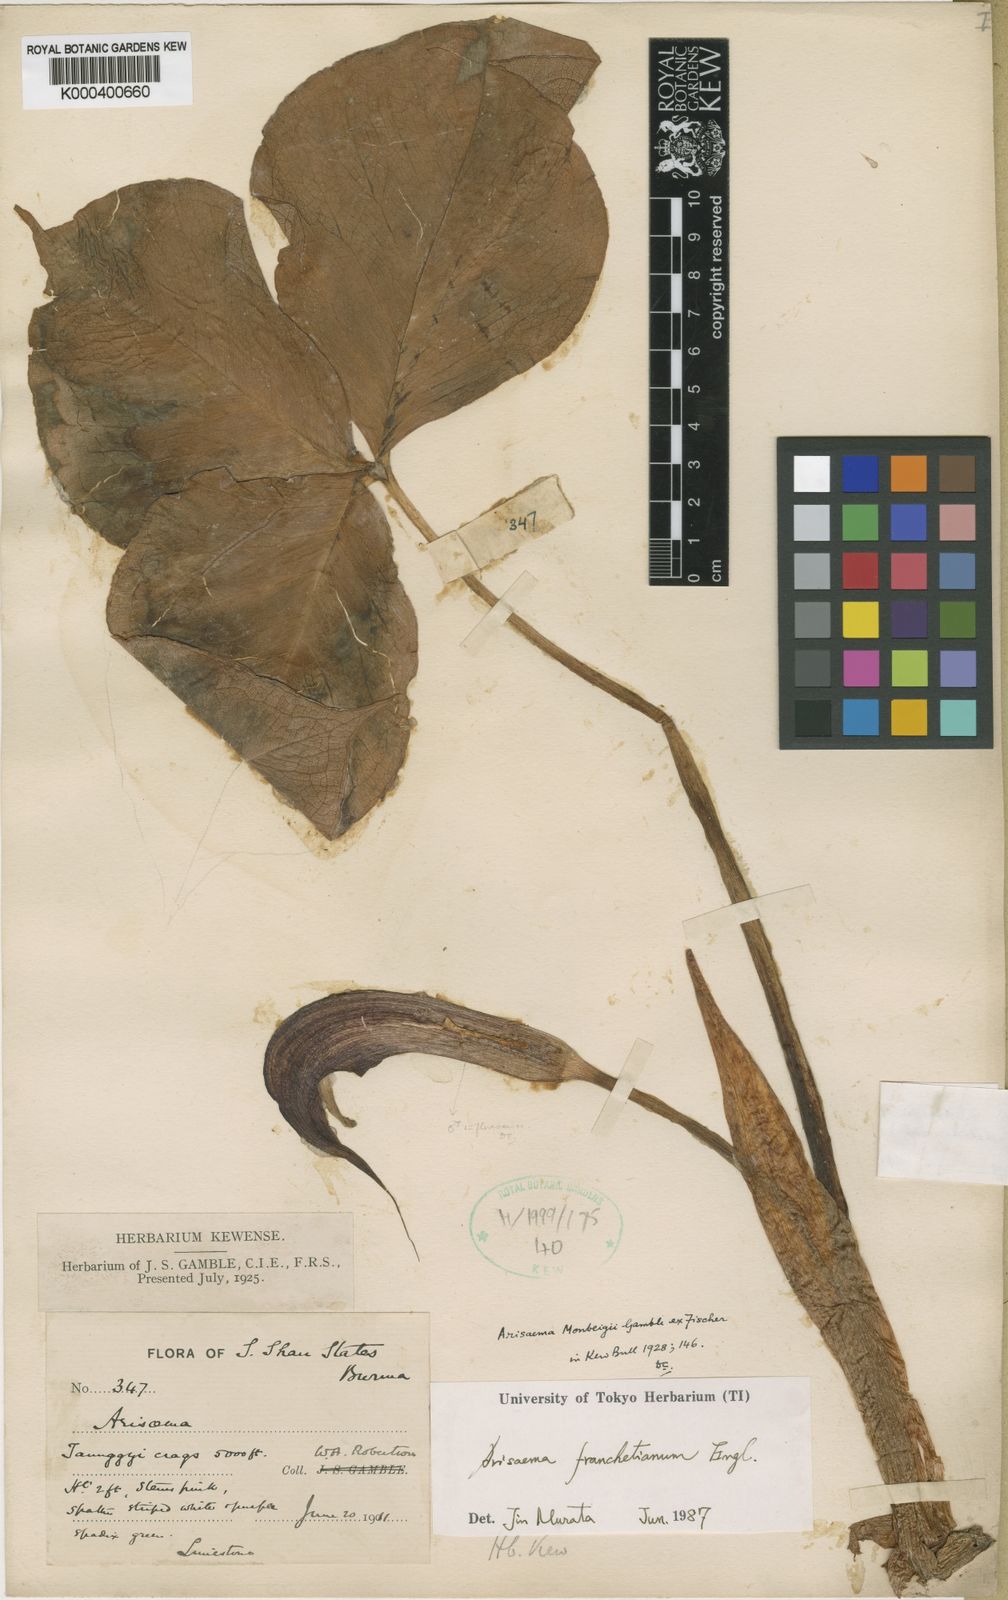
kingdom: Plantae
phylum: Tracheophyta
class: Liliopsida
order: Alismatales
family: Araceae
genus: Arisaema
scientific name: Arisaema franchetianum
